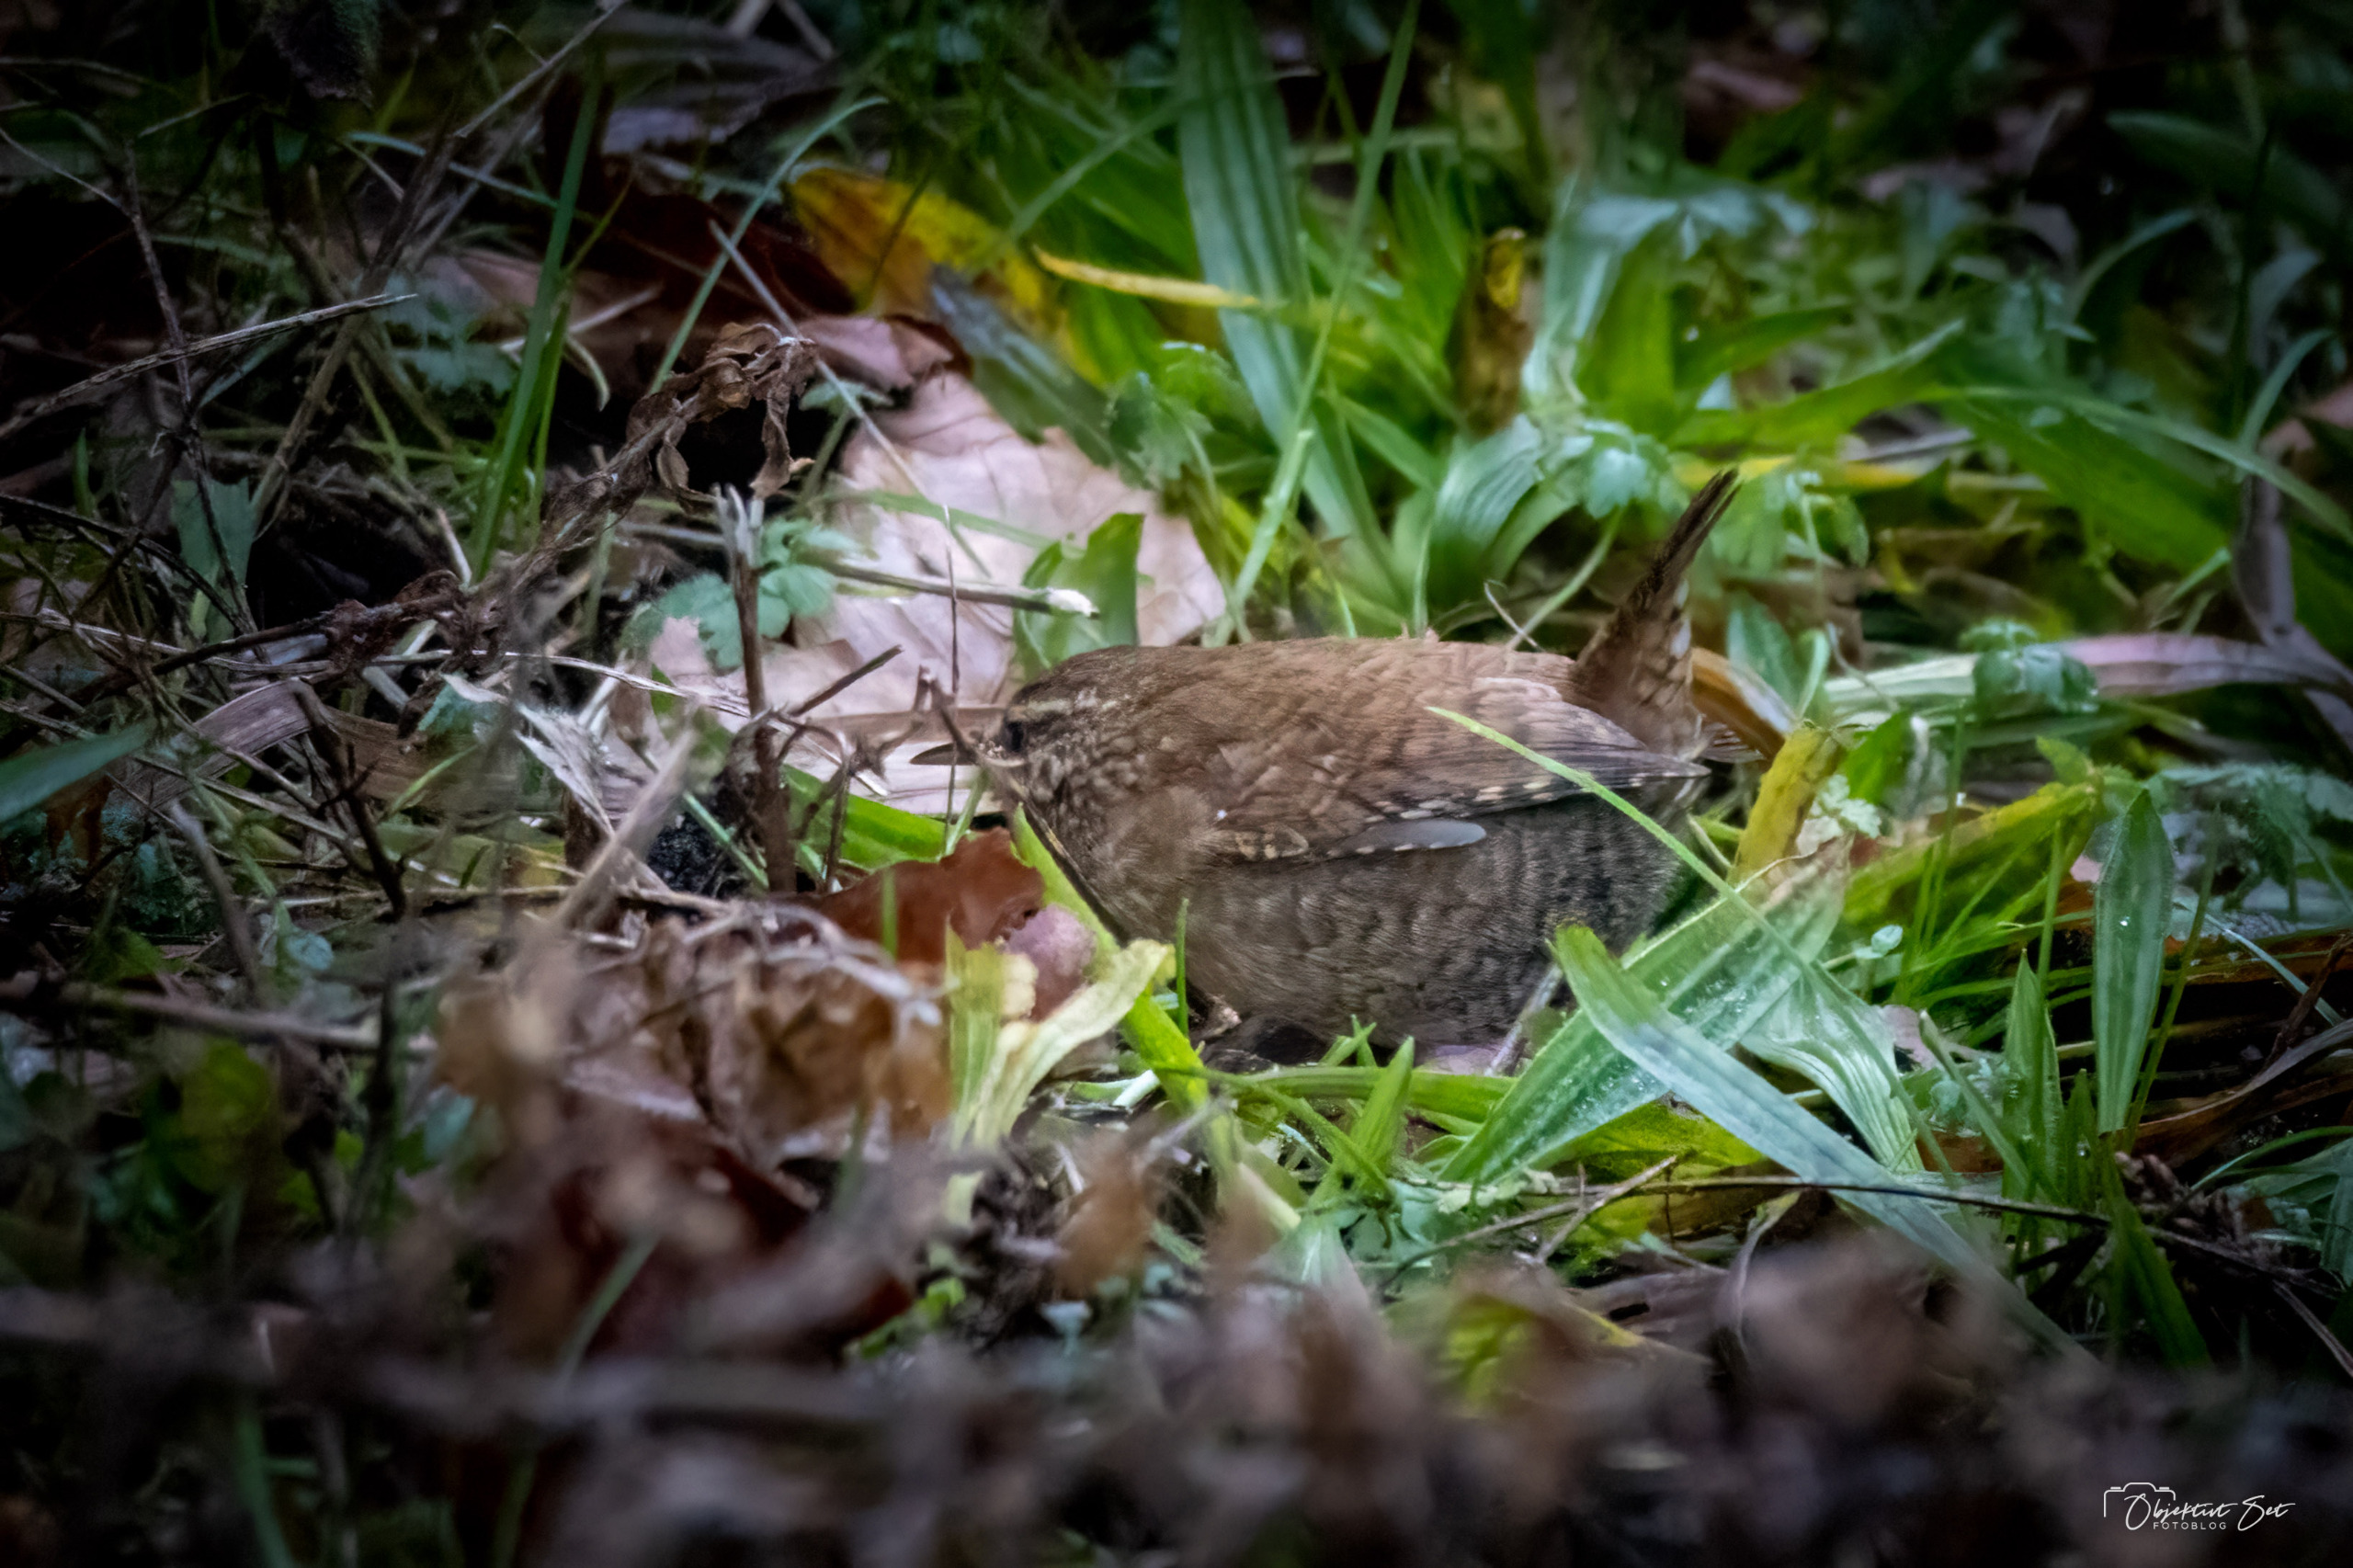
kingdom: Animalia
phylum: Chordata
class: Aves
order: Passeriformes
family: Troglodytidae
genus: Troglodytes
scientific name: Troglodytes troglodytes
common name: Gærdesmutte
